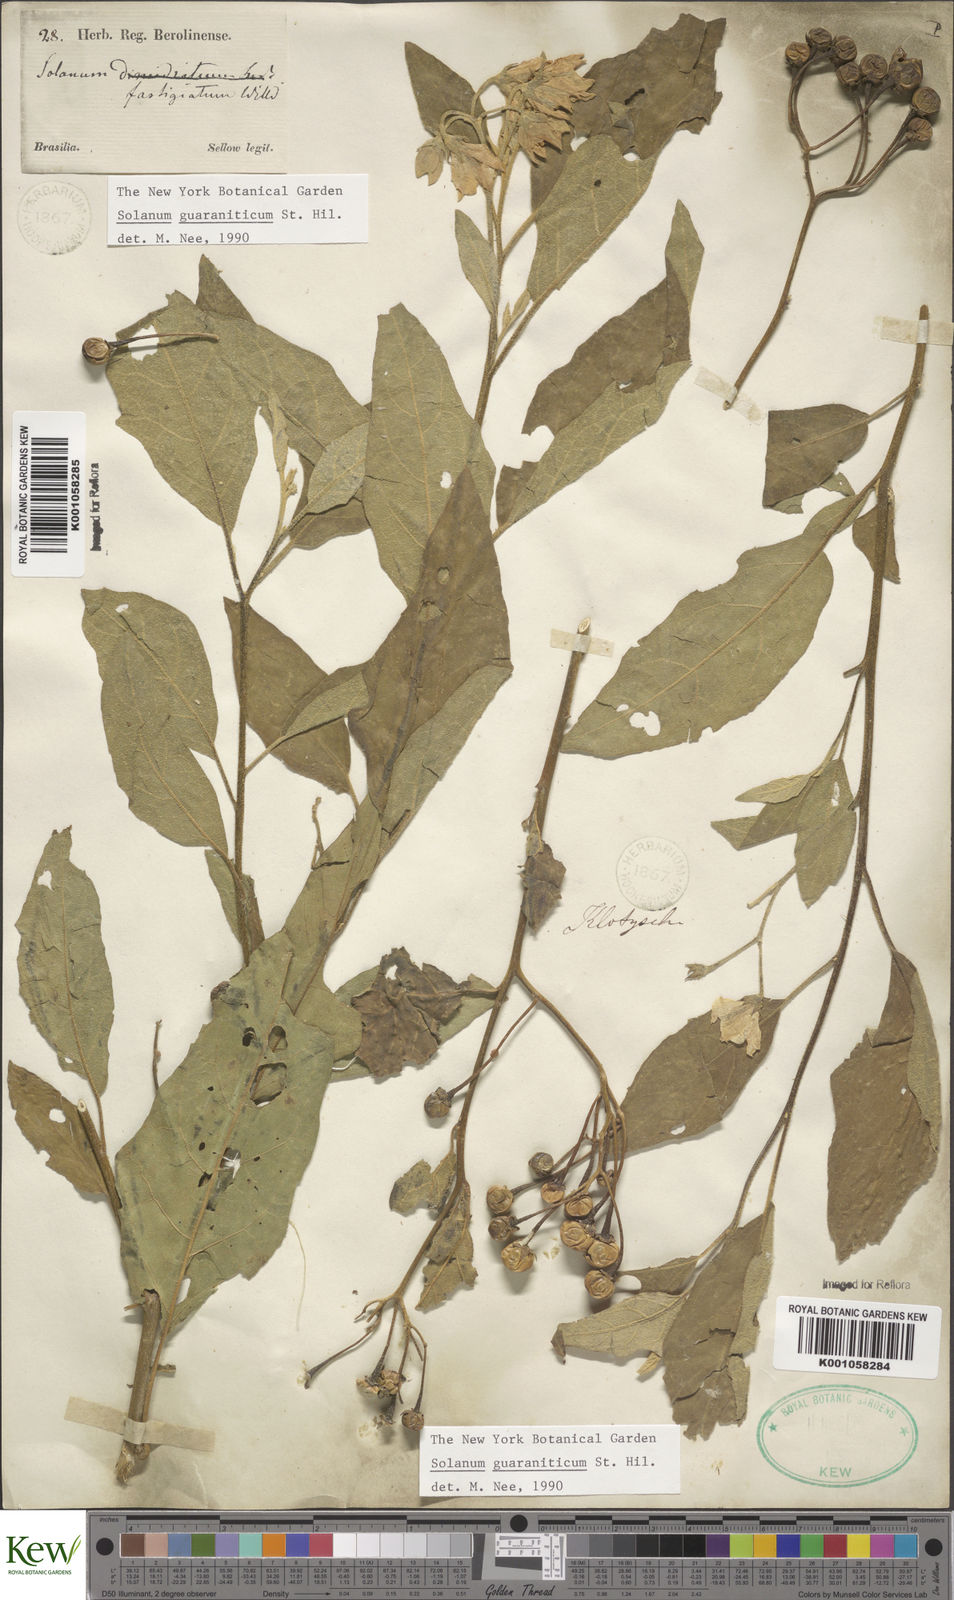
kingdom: Plantae
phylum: Tracheophyta
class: Magnoliopsida
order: Solanales
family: Solanaceae
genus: Solanum
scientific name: Solanum guaraniticum
